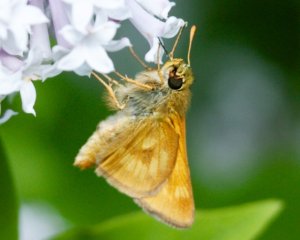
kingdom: Animalia
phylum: Arthropoda
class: Insecta
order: Lepidoptera
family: Hesperiidae
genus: Polites
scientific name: Polites
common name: Long Dash Skipper
